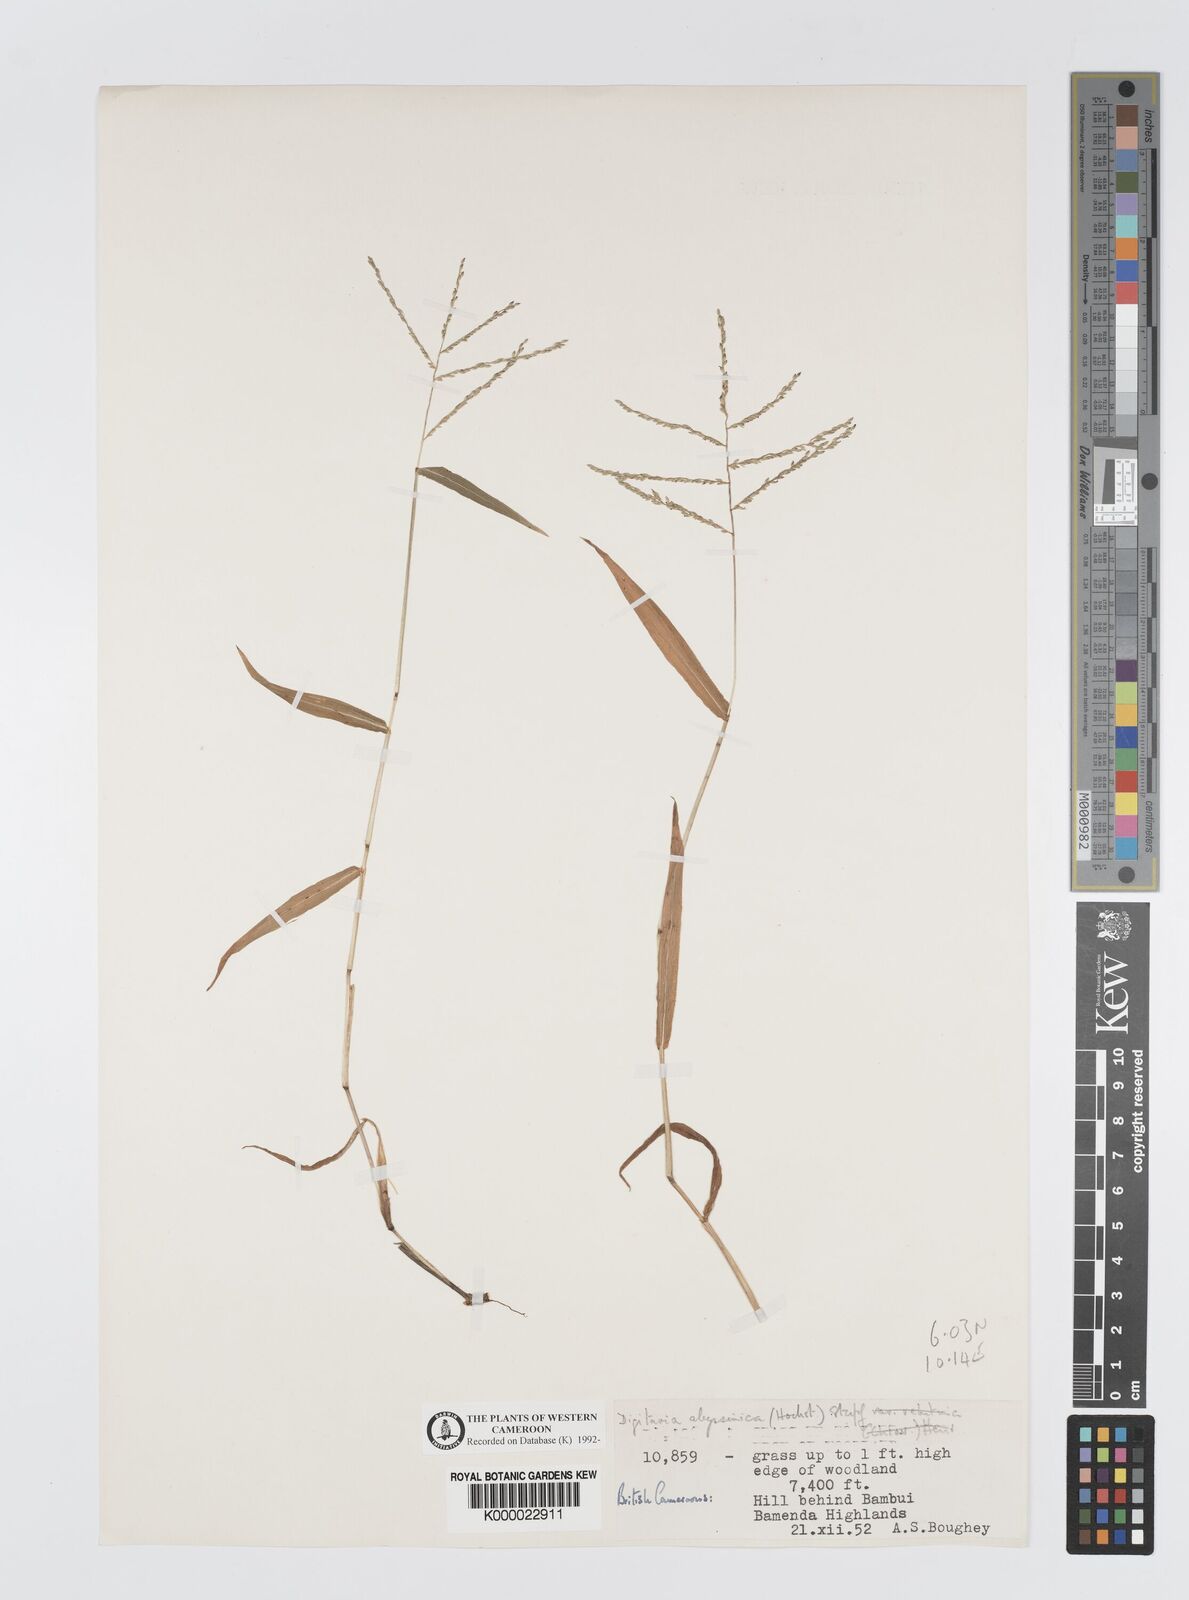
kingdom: Plantae
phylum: Tracheophyta
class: Liliopsida
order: Poales
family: Poaceae
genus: Digitaria
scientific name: Digitaria abyssinica
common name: African couchgrass
